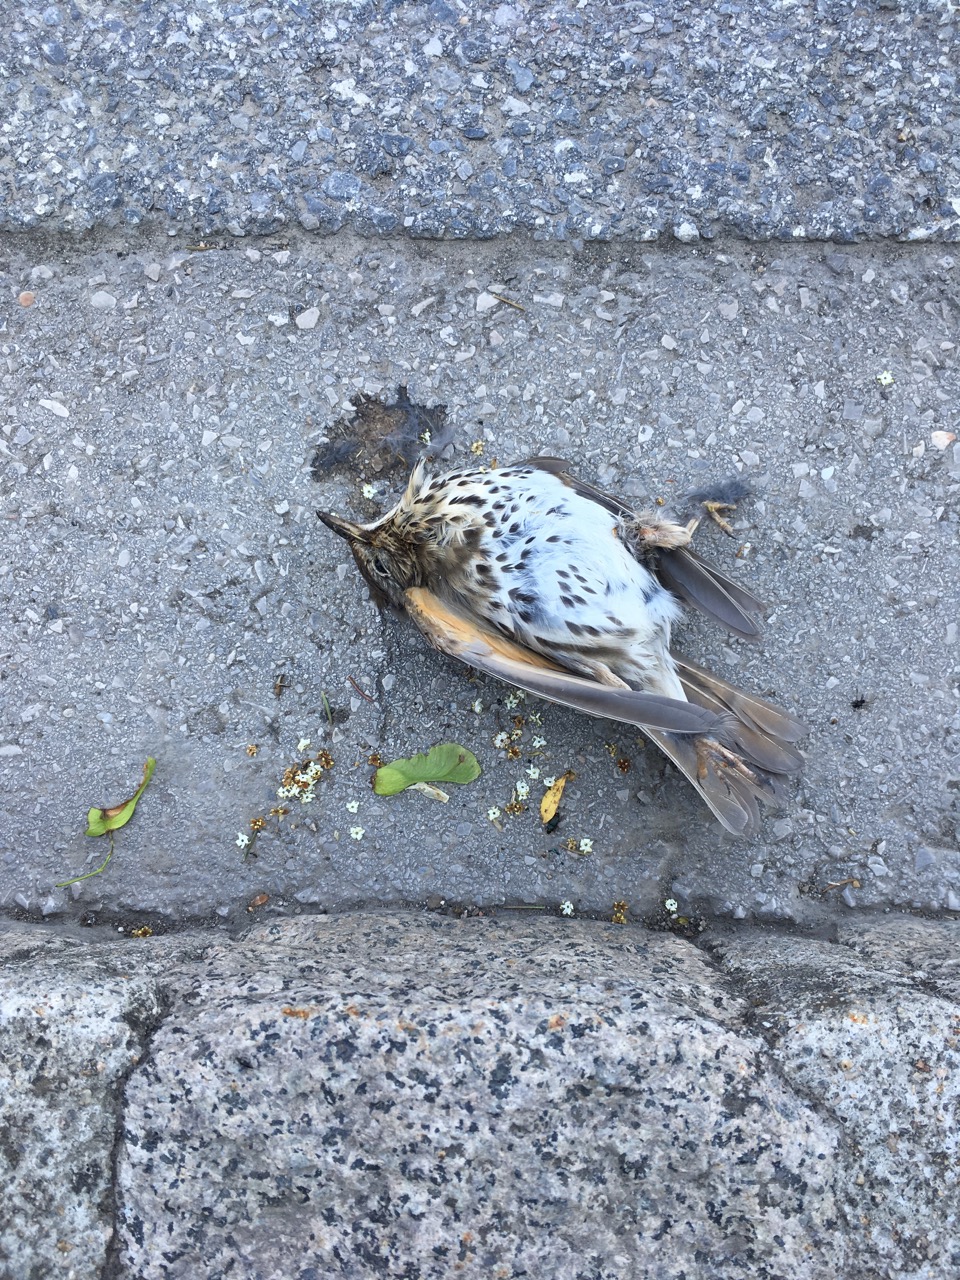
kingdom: Animalia
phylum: Chordata
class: Aves
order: Passeriformes
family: Turdidae
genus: Turdus
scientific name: Turdus philomelos
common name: Song thrush
